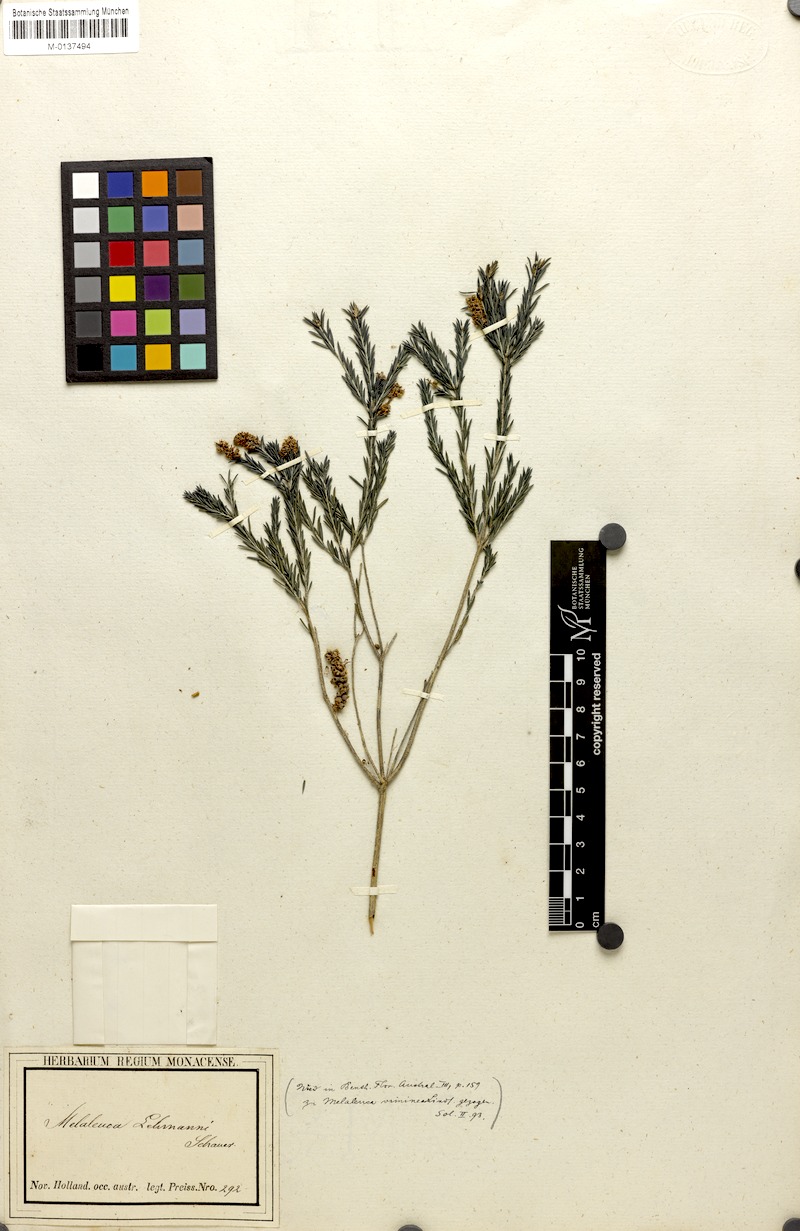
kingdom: Plantae
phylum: Tracheophyta
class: Magnoliopsida
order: Myrtales
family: Myrtaceae
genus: Melaleuca
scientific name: Melaleuca viminea
